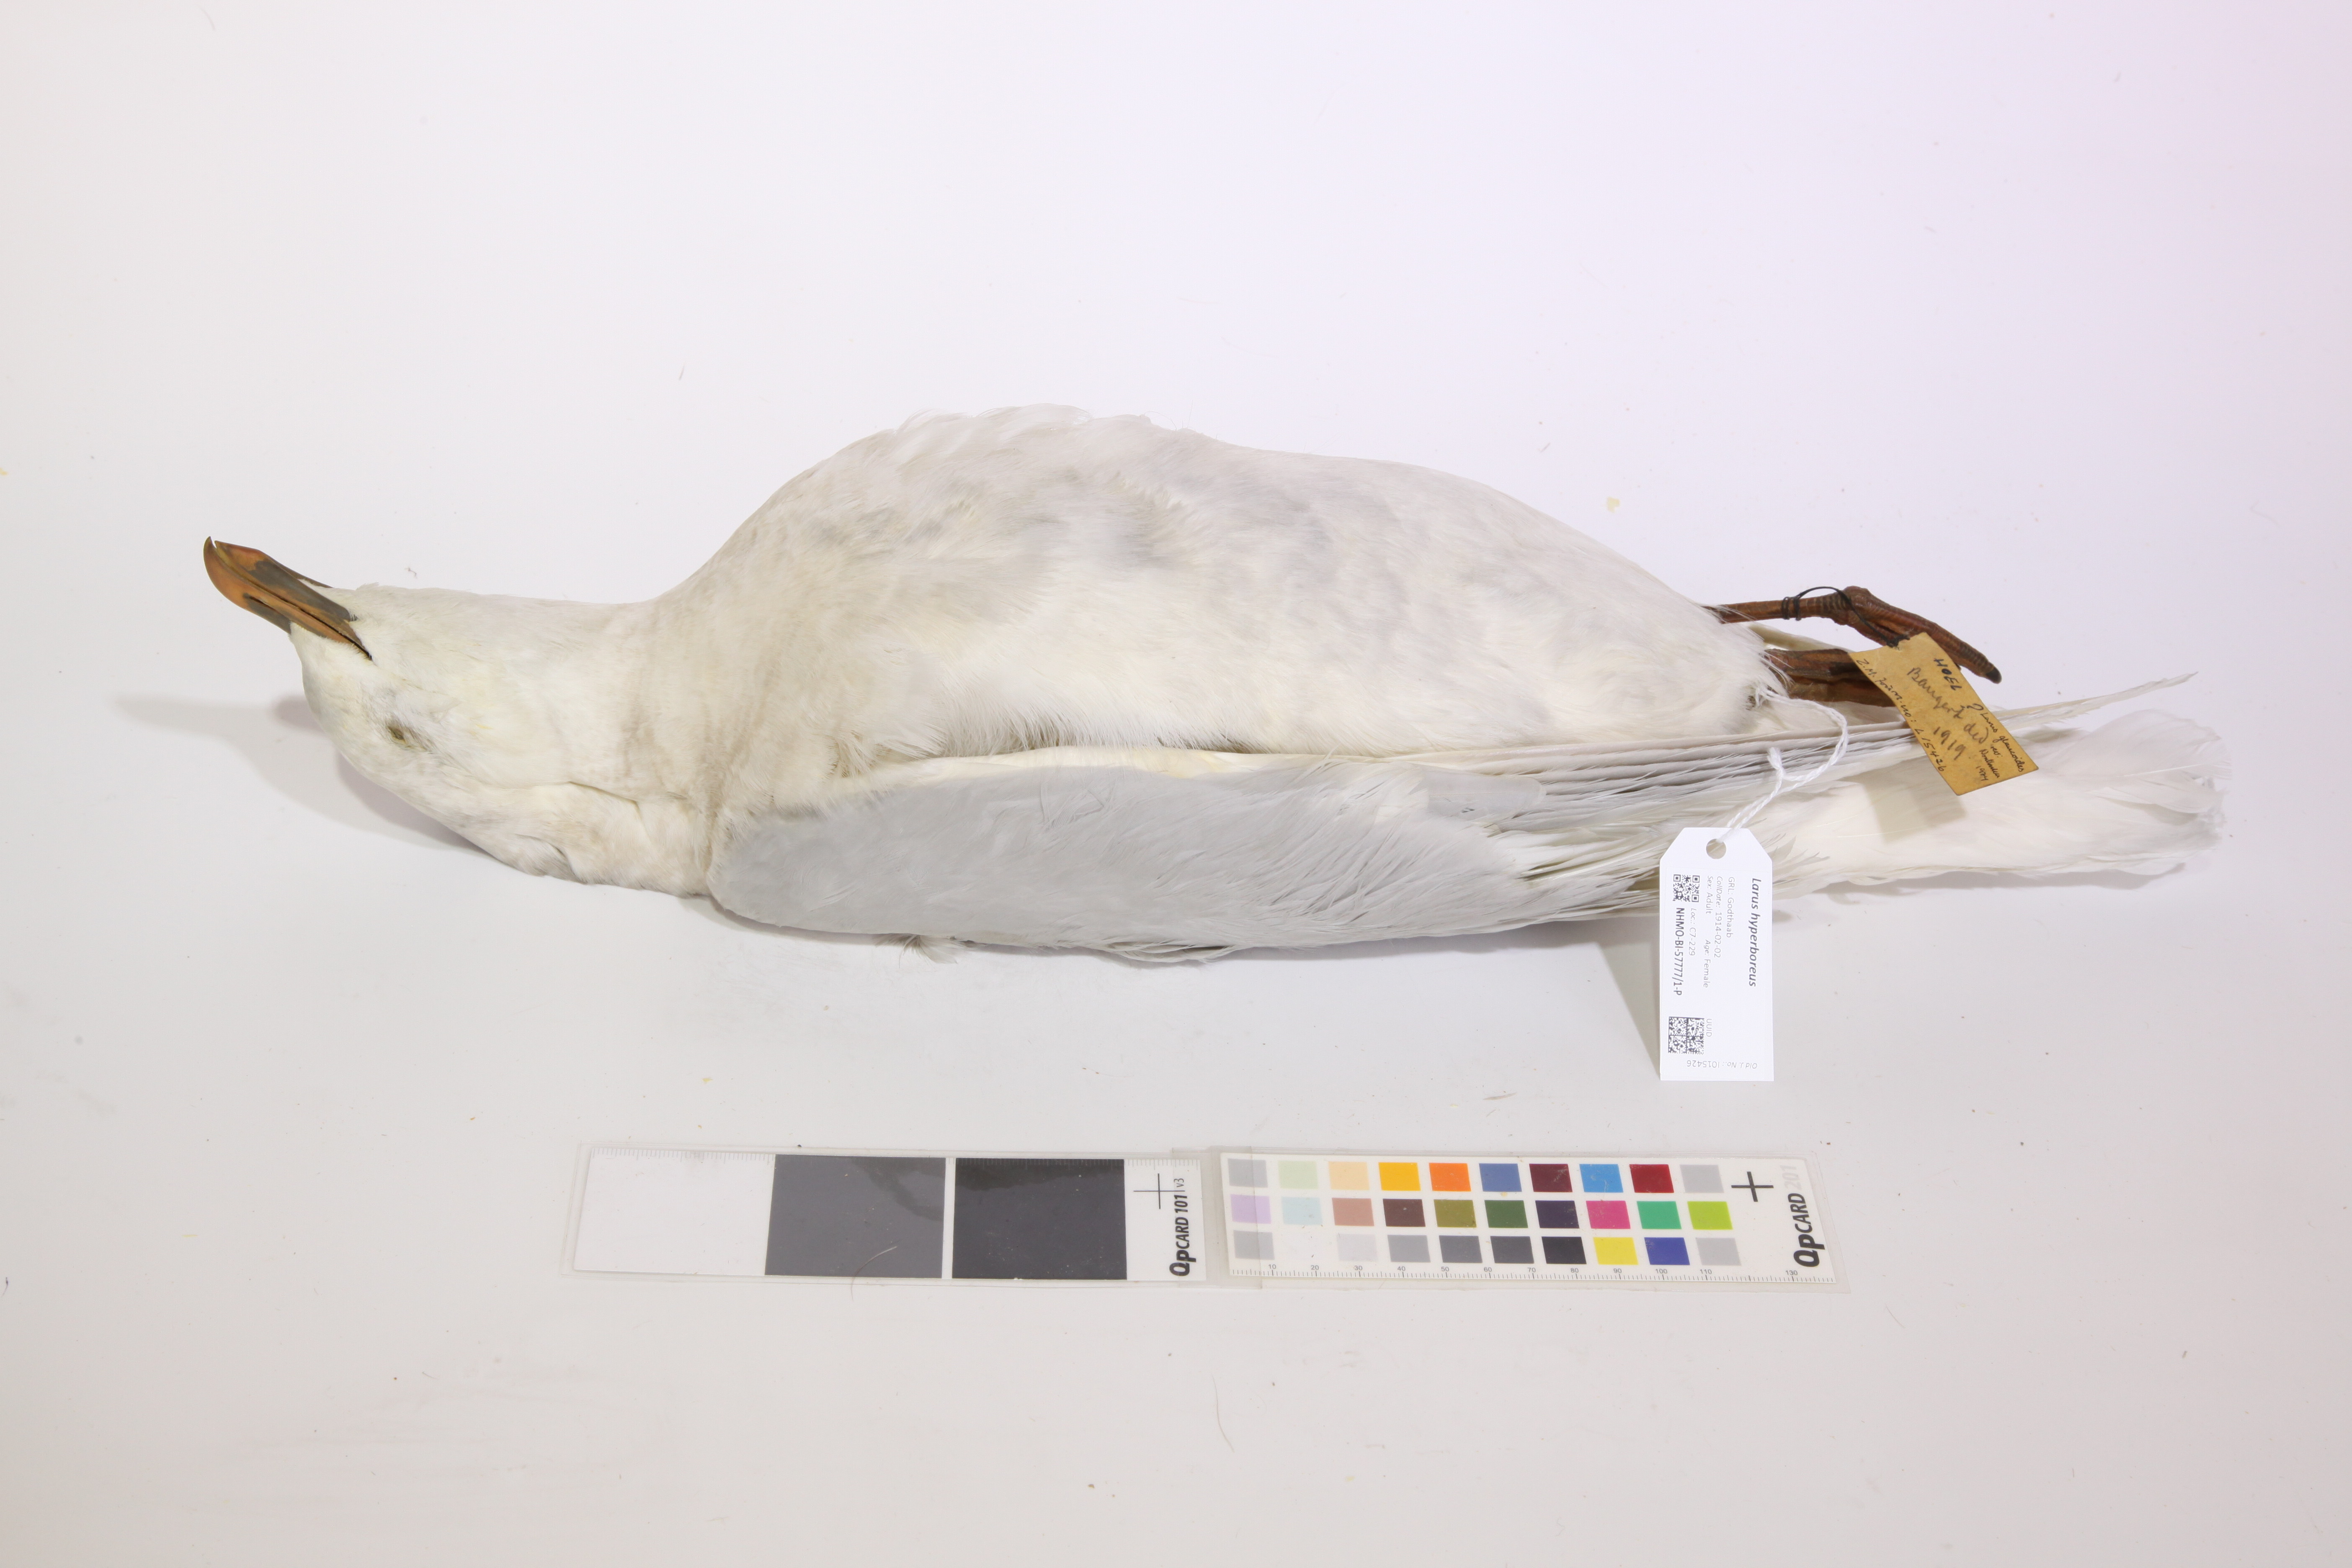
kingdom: Animalia
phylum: Chordata
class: Aves
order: Charadriiformes
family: Laridae
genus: Larus
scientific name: Larus hyperboreus
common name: Glaucous gull
